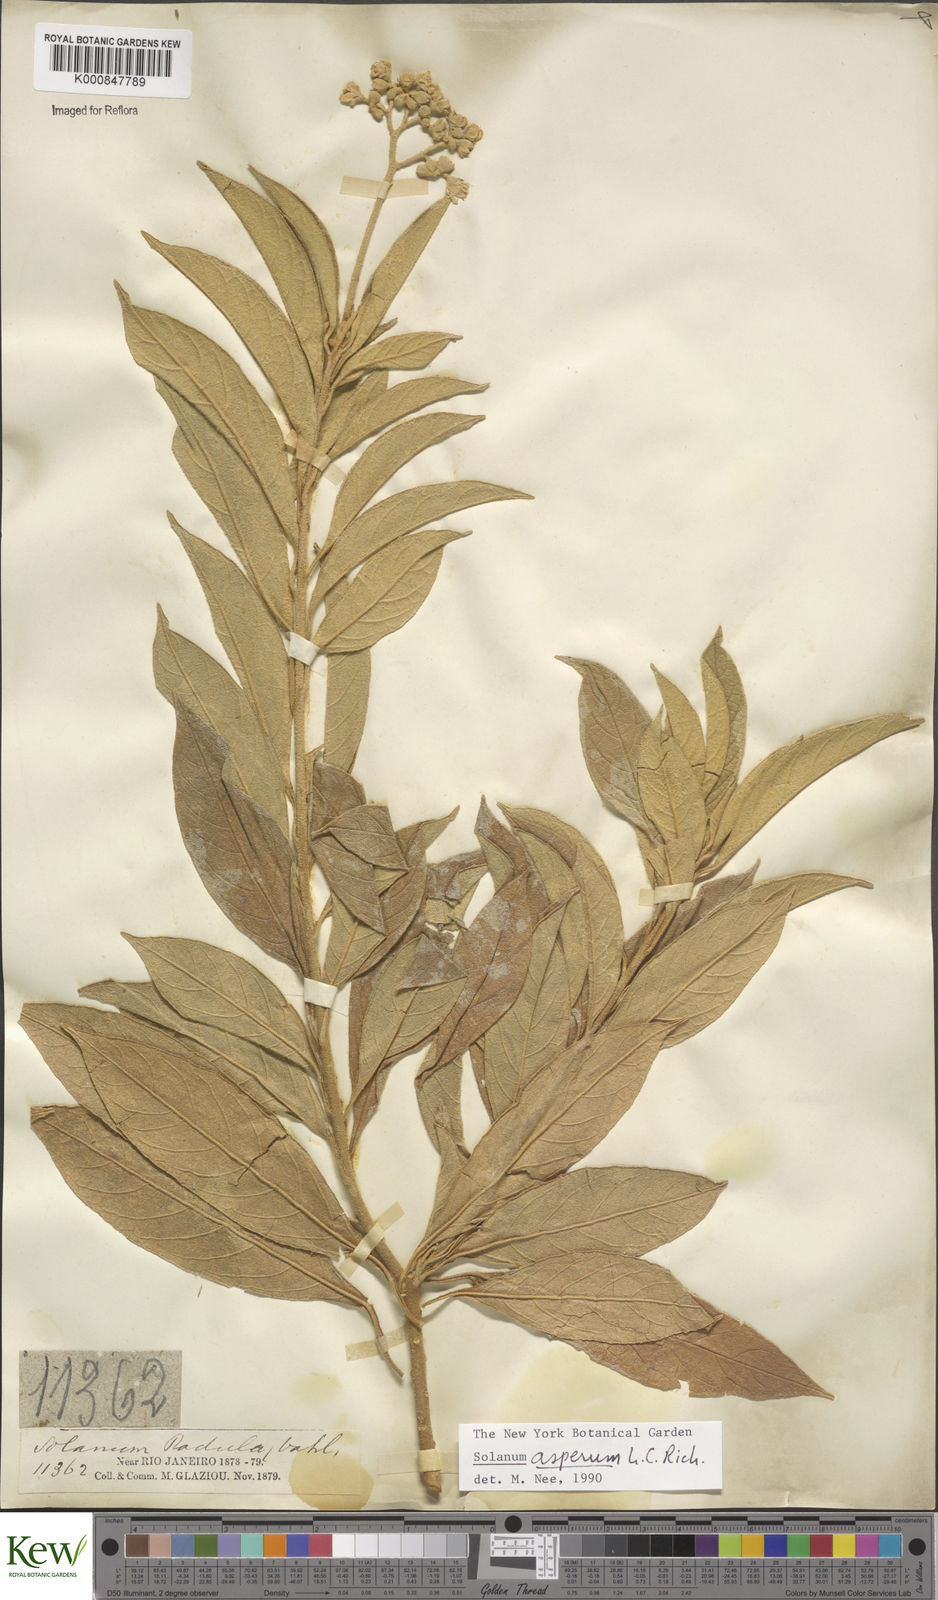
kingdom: Plantae
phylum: Tracheophyta
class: Magnoliopsida
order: Solanales
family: Solanaceae
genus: Solanum
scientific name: Solanum asperum
